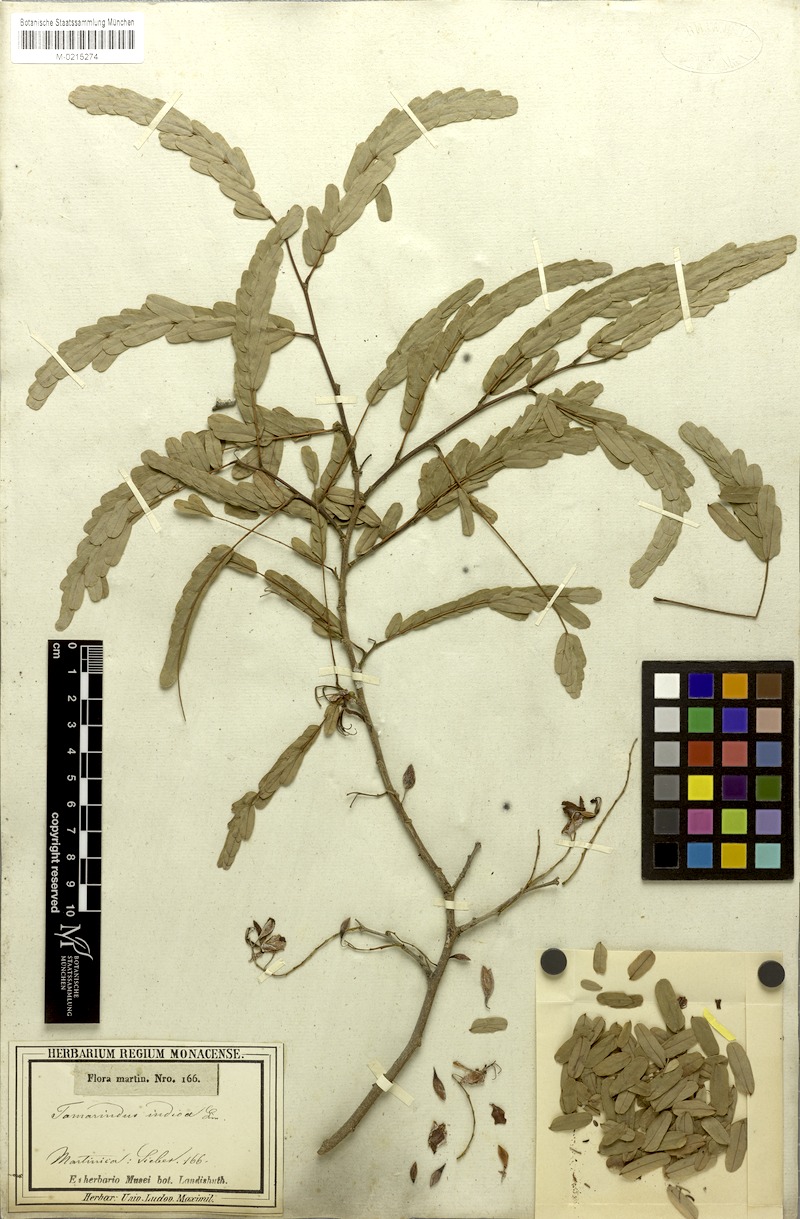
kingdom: Plantae
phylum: Tracheophyta
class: Magnoliopsida
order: Fabales
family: Fabaceae
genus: Tamarindus
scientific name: Tamarindus indica
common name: Tamarind
